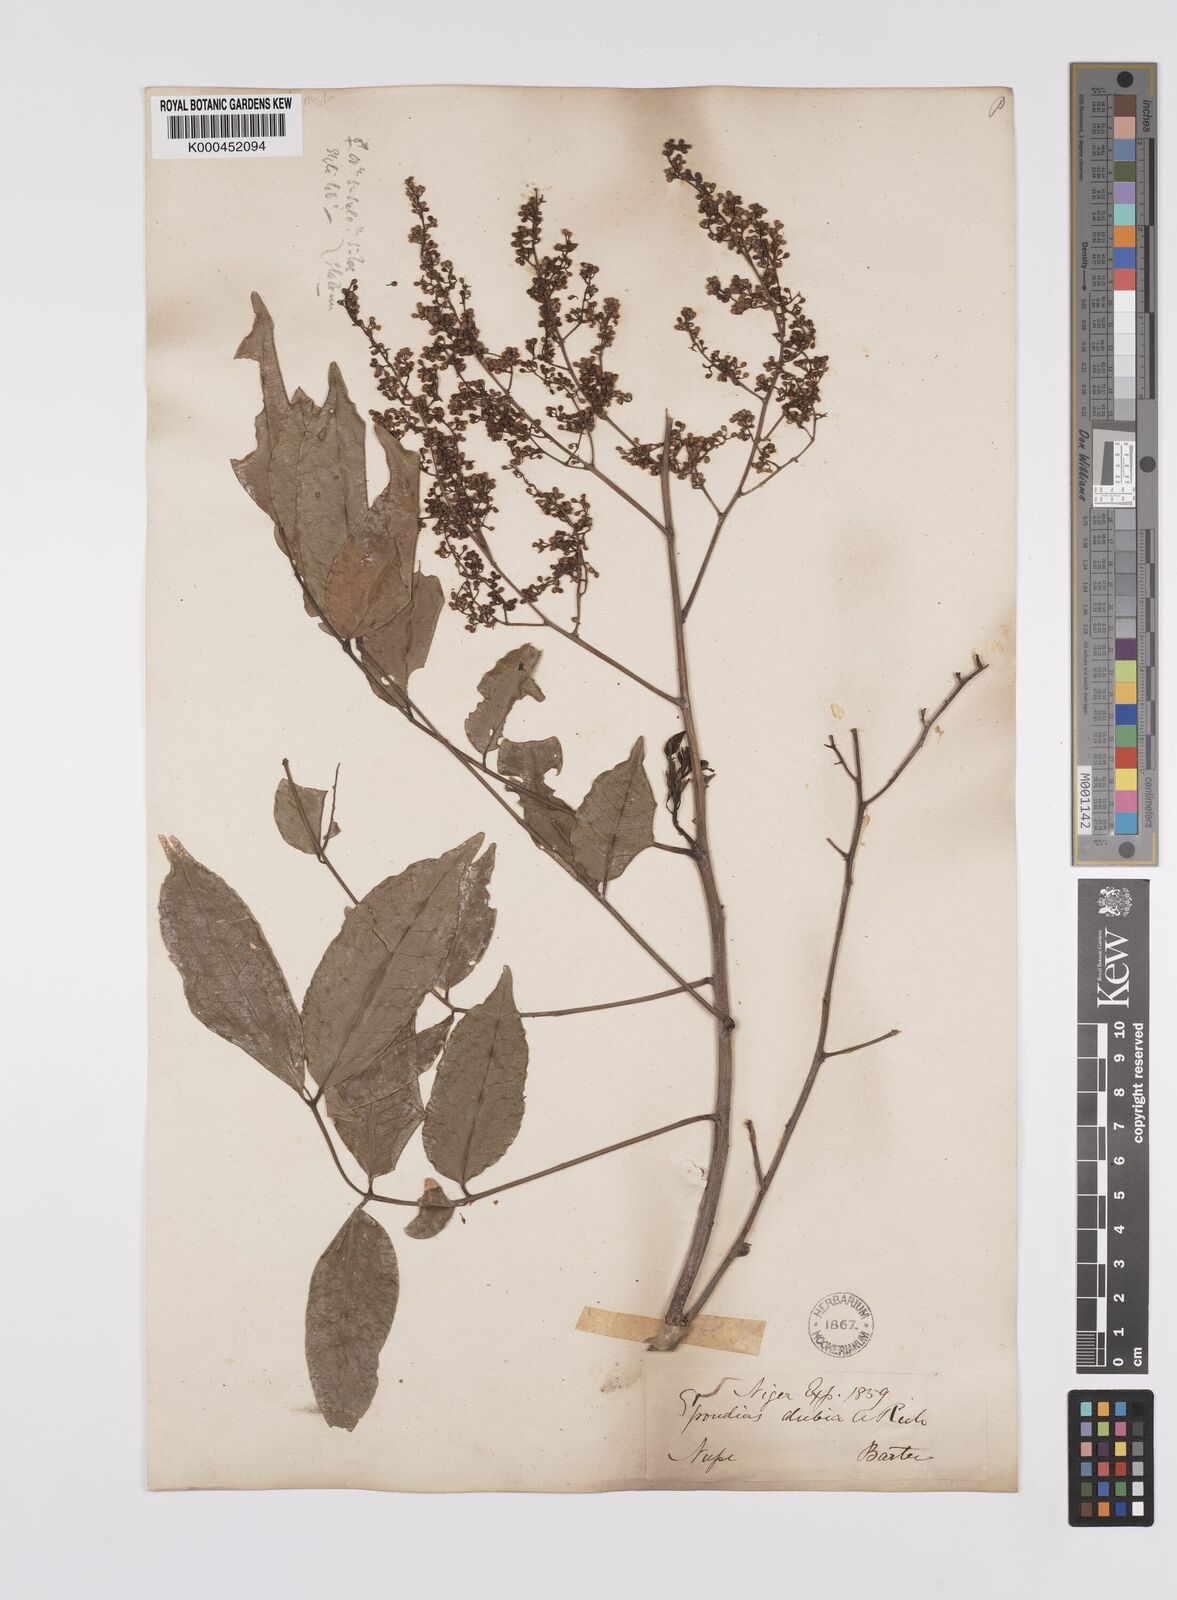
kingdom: Plantae
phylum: Tracheophyta
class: Magnoliopsida
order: Sapindales
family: Anacardiaceae
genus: Spondias
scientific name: Spondias mombin
